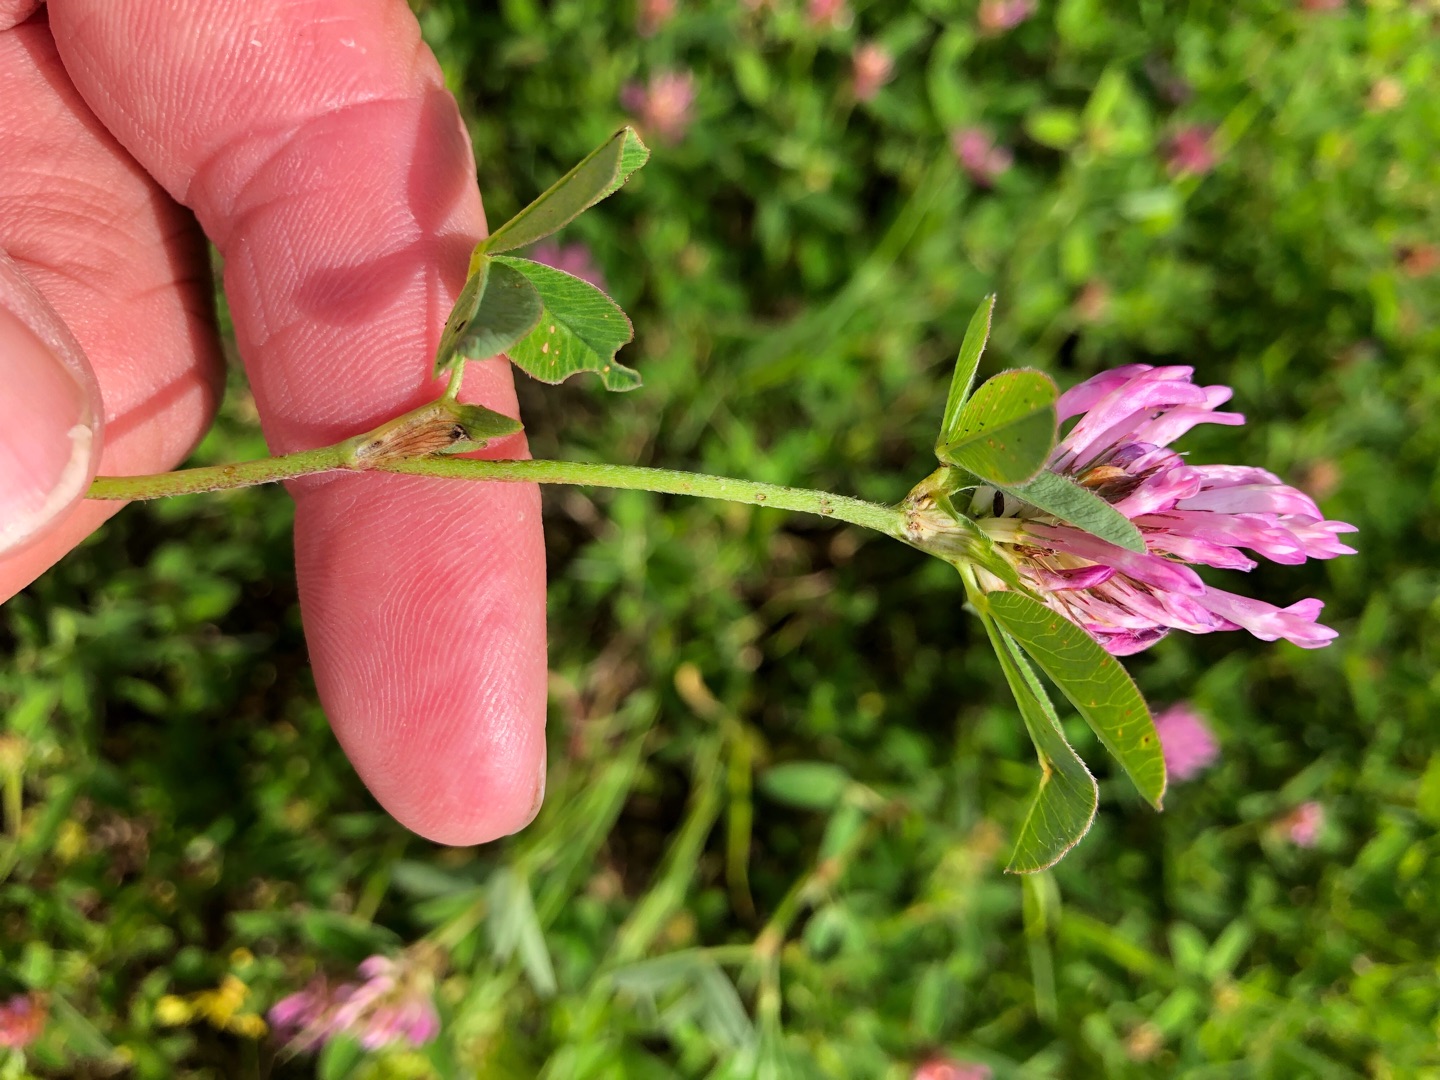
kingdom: Plantae
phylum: Tracheophyta
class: Magnoliopsida
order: Fabales
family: Fabaceae
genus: Trifolium
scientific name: Trifolium medium
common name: Bugtet kløver
